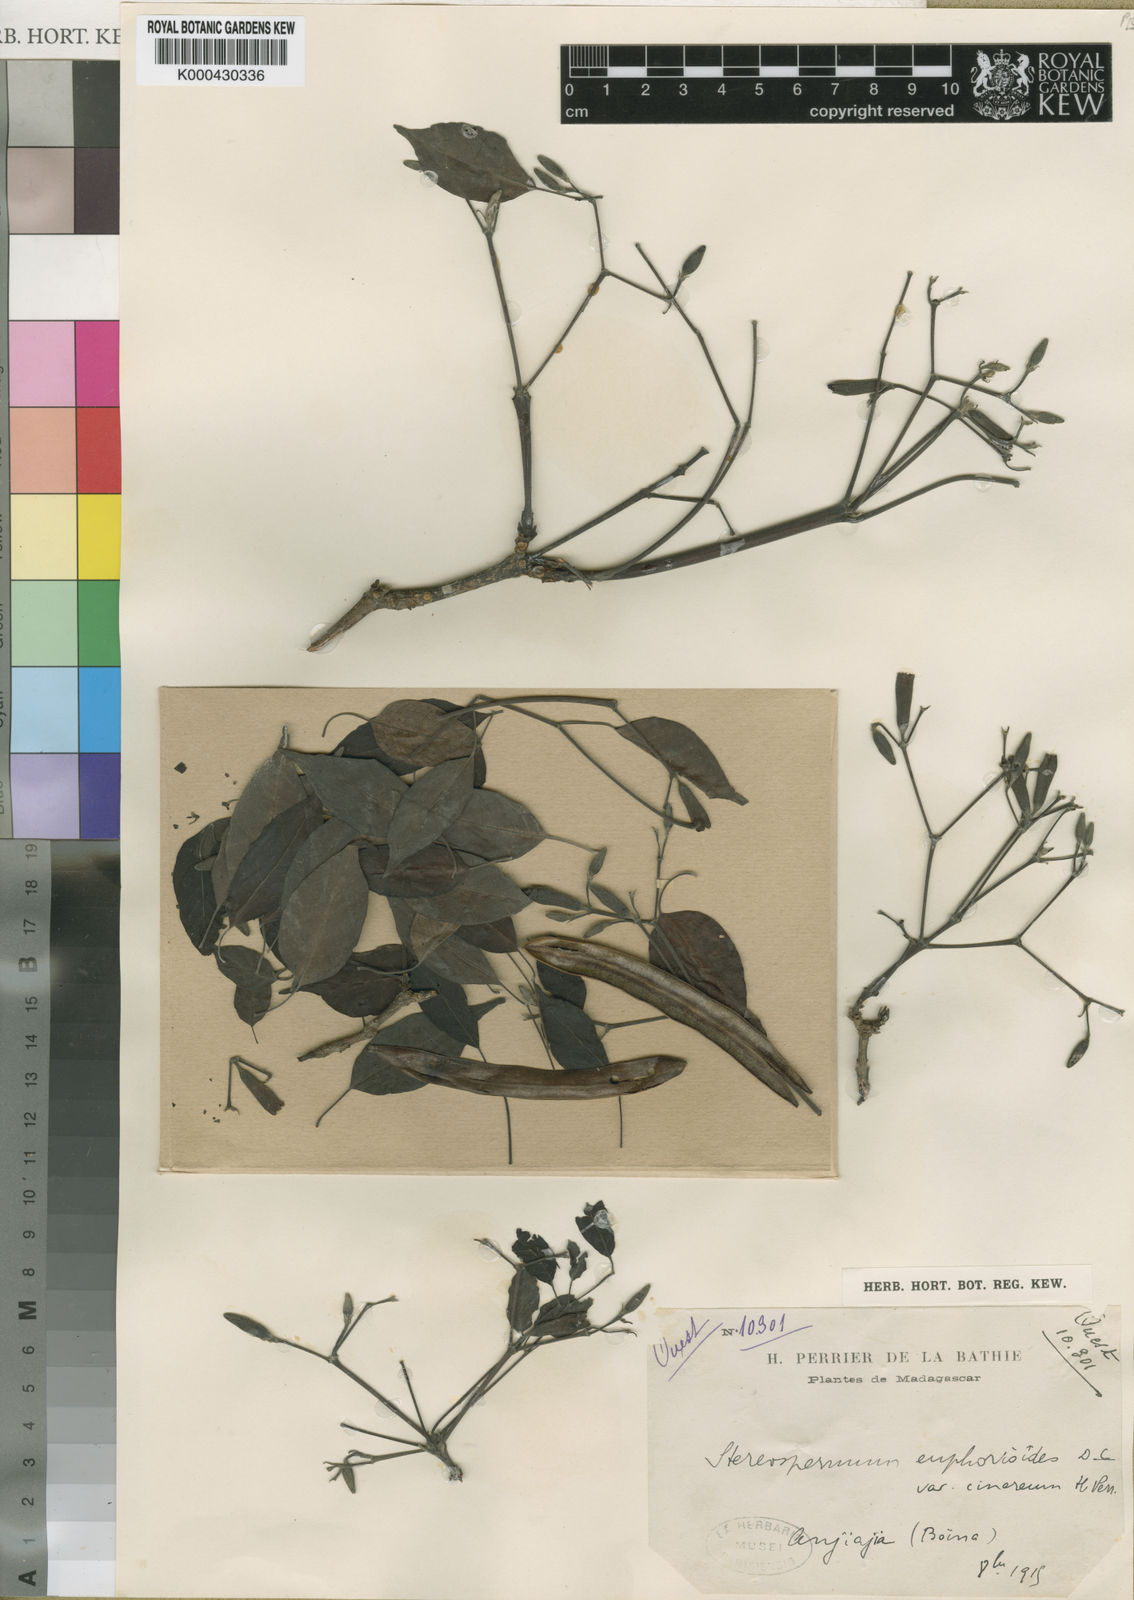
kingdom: Plantae
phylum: Tracheophyta
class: Magnoliopsida
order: Lamiales
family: Bignoniaceae
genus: Stereospermum
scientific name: Stereospermum euphorioides
